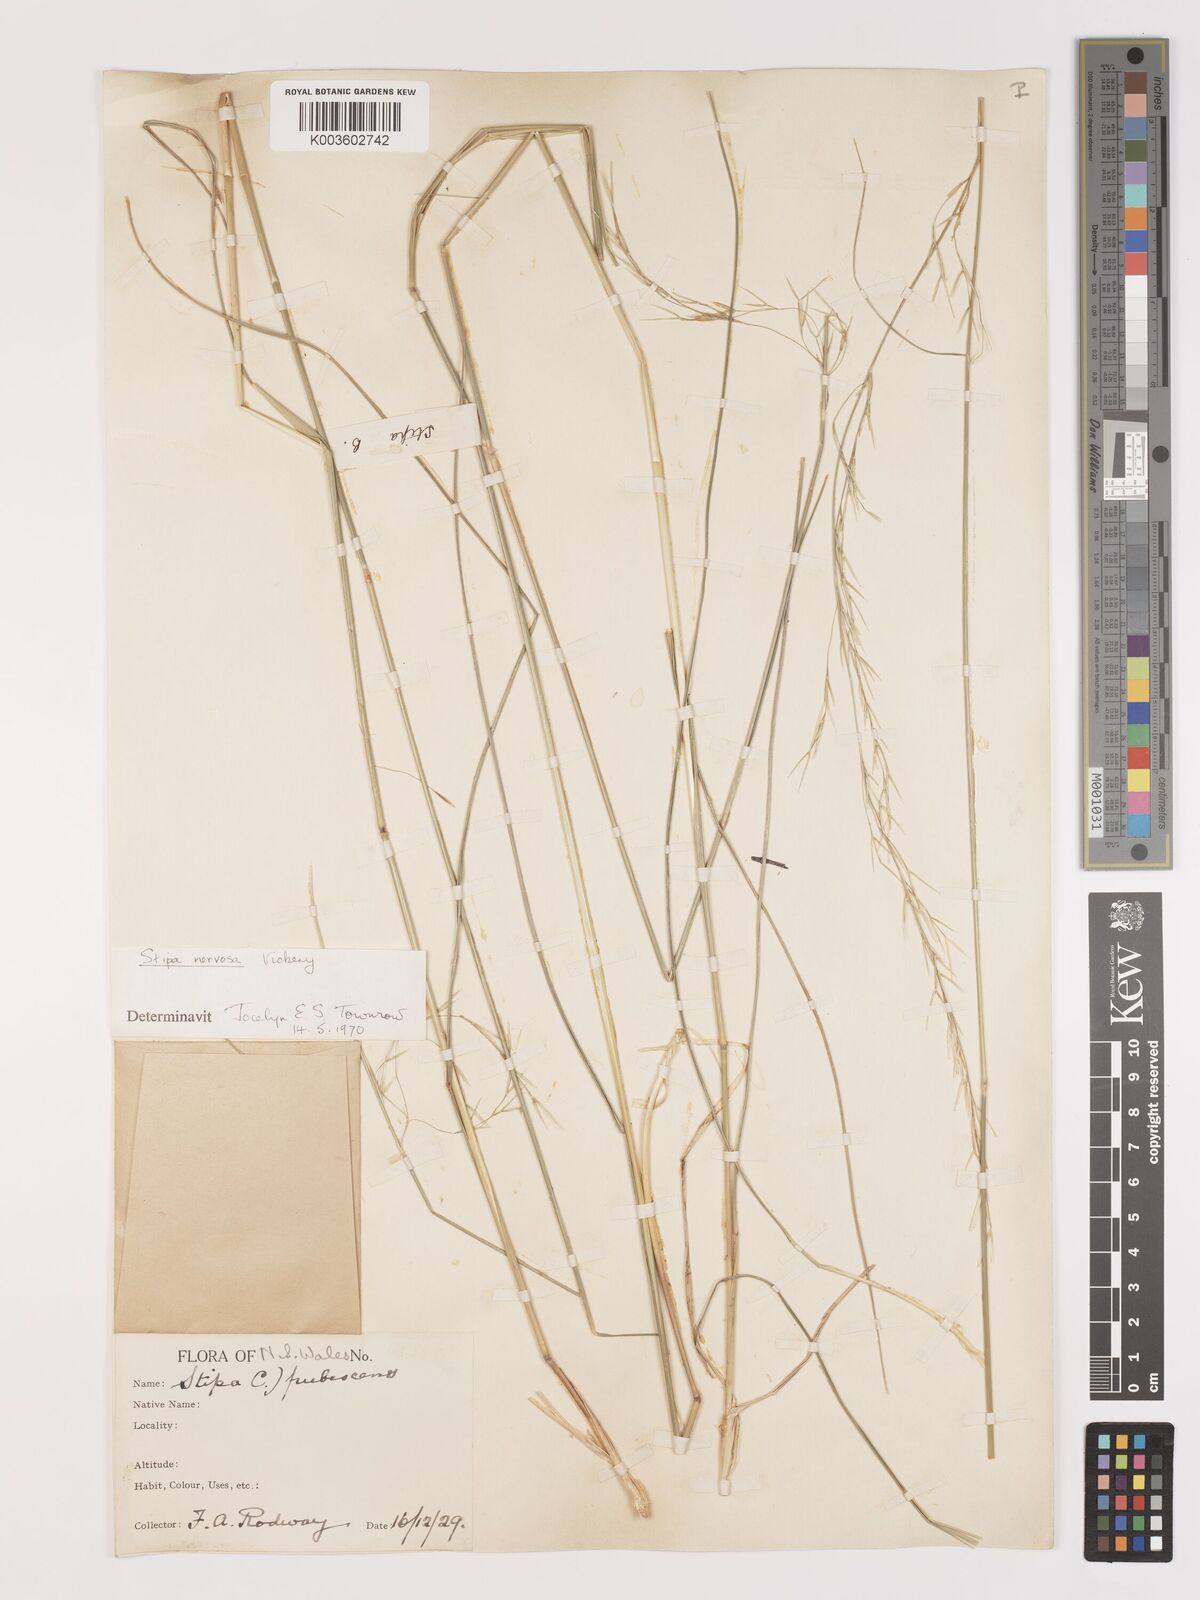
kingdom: Plantae
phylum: Tracheophyta
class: Liliopsida
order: Poales
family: Poaceae
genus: Austrostipa
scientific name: Austrostipa rudis
